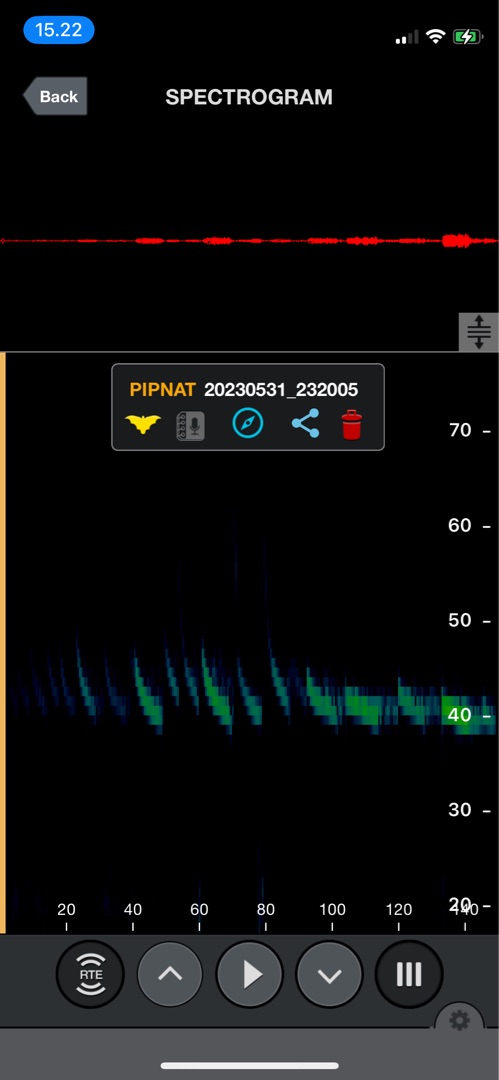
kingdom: Animalia
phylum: Chordata
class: Mammalia
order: Chiroptera
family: Vespertilionidae
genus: Pipistrellus
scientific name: Pipistrellus nathusii
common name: Troldflagermus
